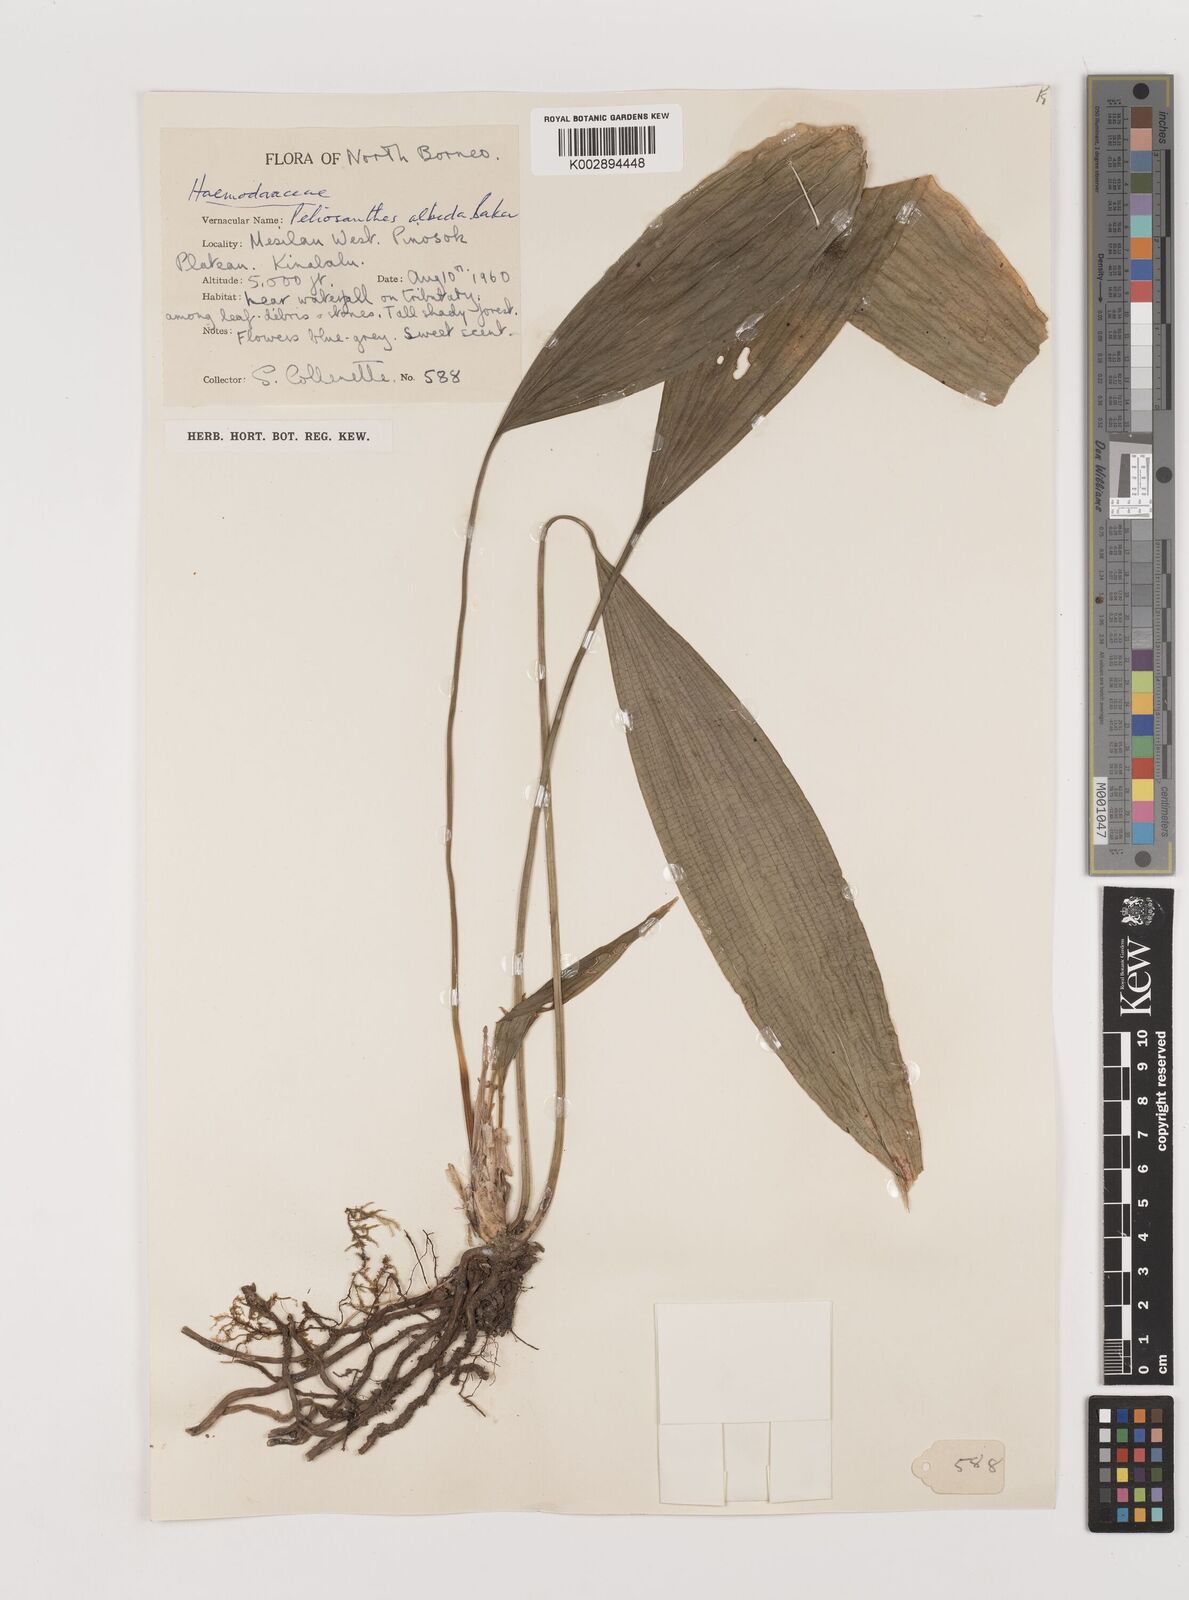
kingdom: Plantae
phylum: Tracheophyta
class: Liliopsida
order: Asparagales
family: Asparagaceae
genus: Peliosanthes
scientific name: Peliosanthes teta
